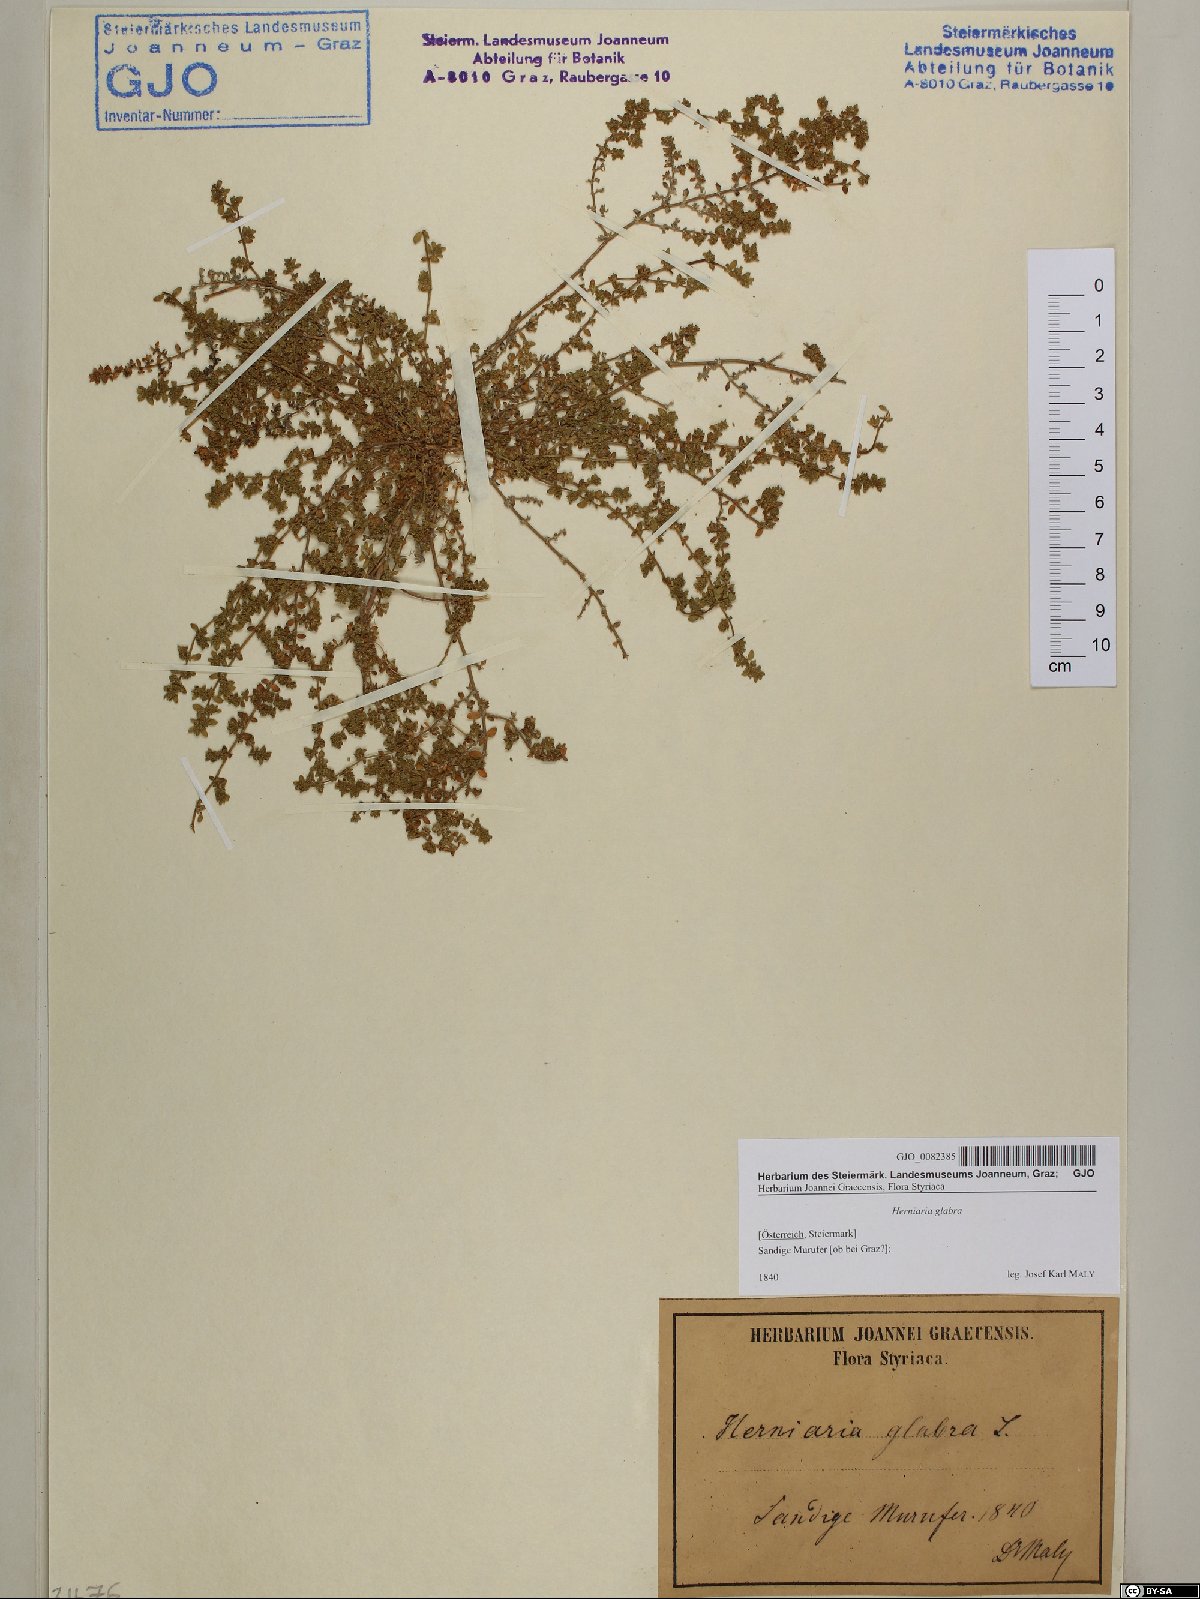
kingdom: Plantae
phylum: Tracheophyta
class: Magnoliopsida
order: Caryophyllales
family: Caryophyllaceae
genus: Herniaria
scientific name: Herniaria glabra
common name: Smooth rupturewort
